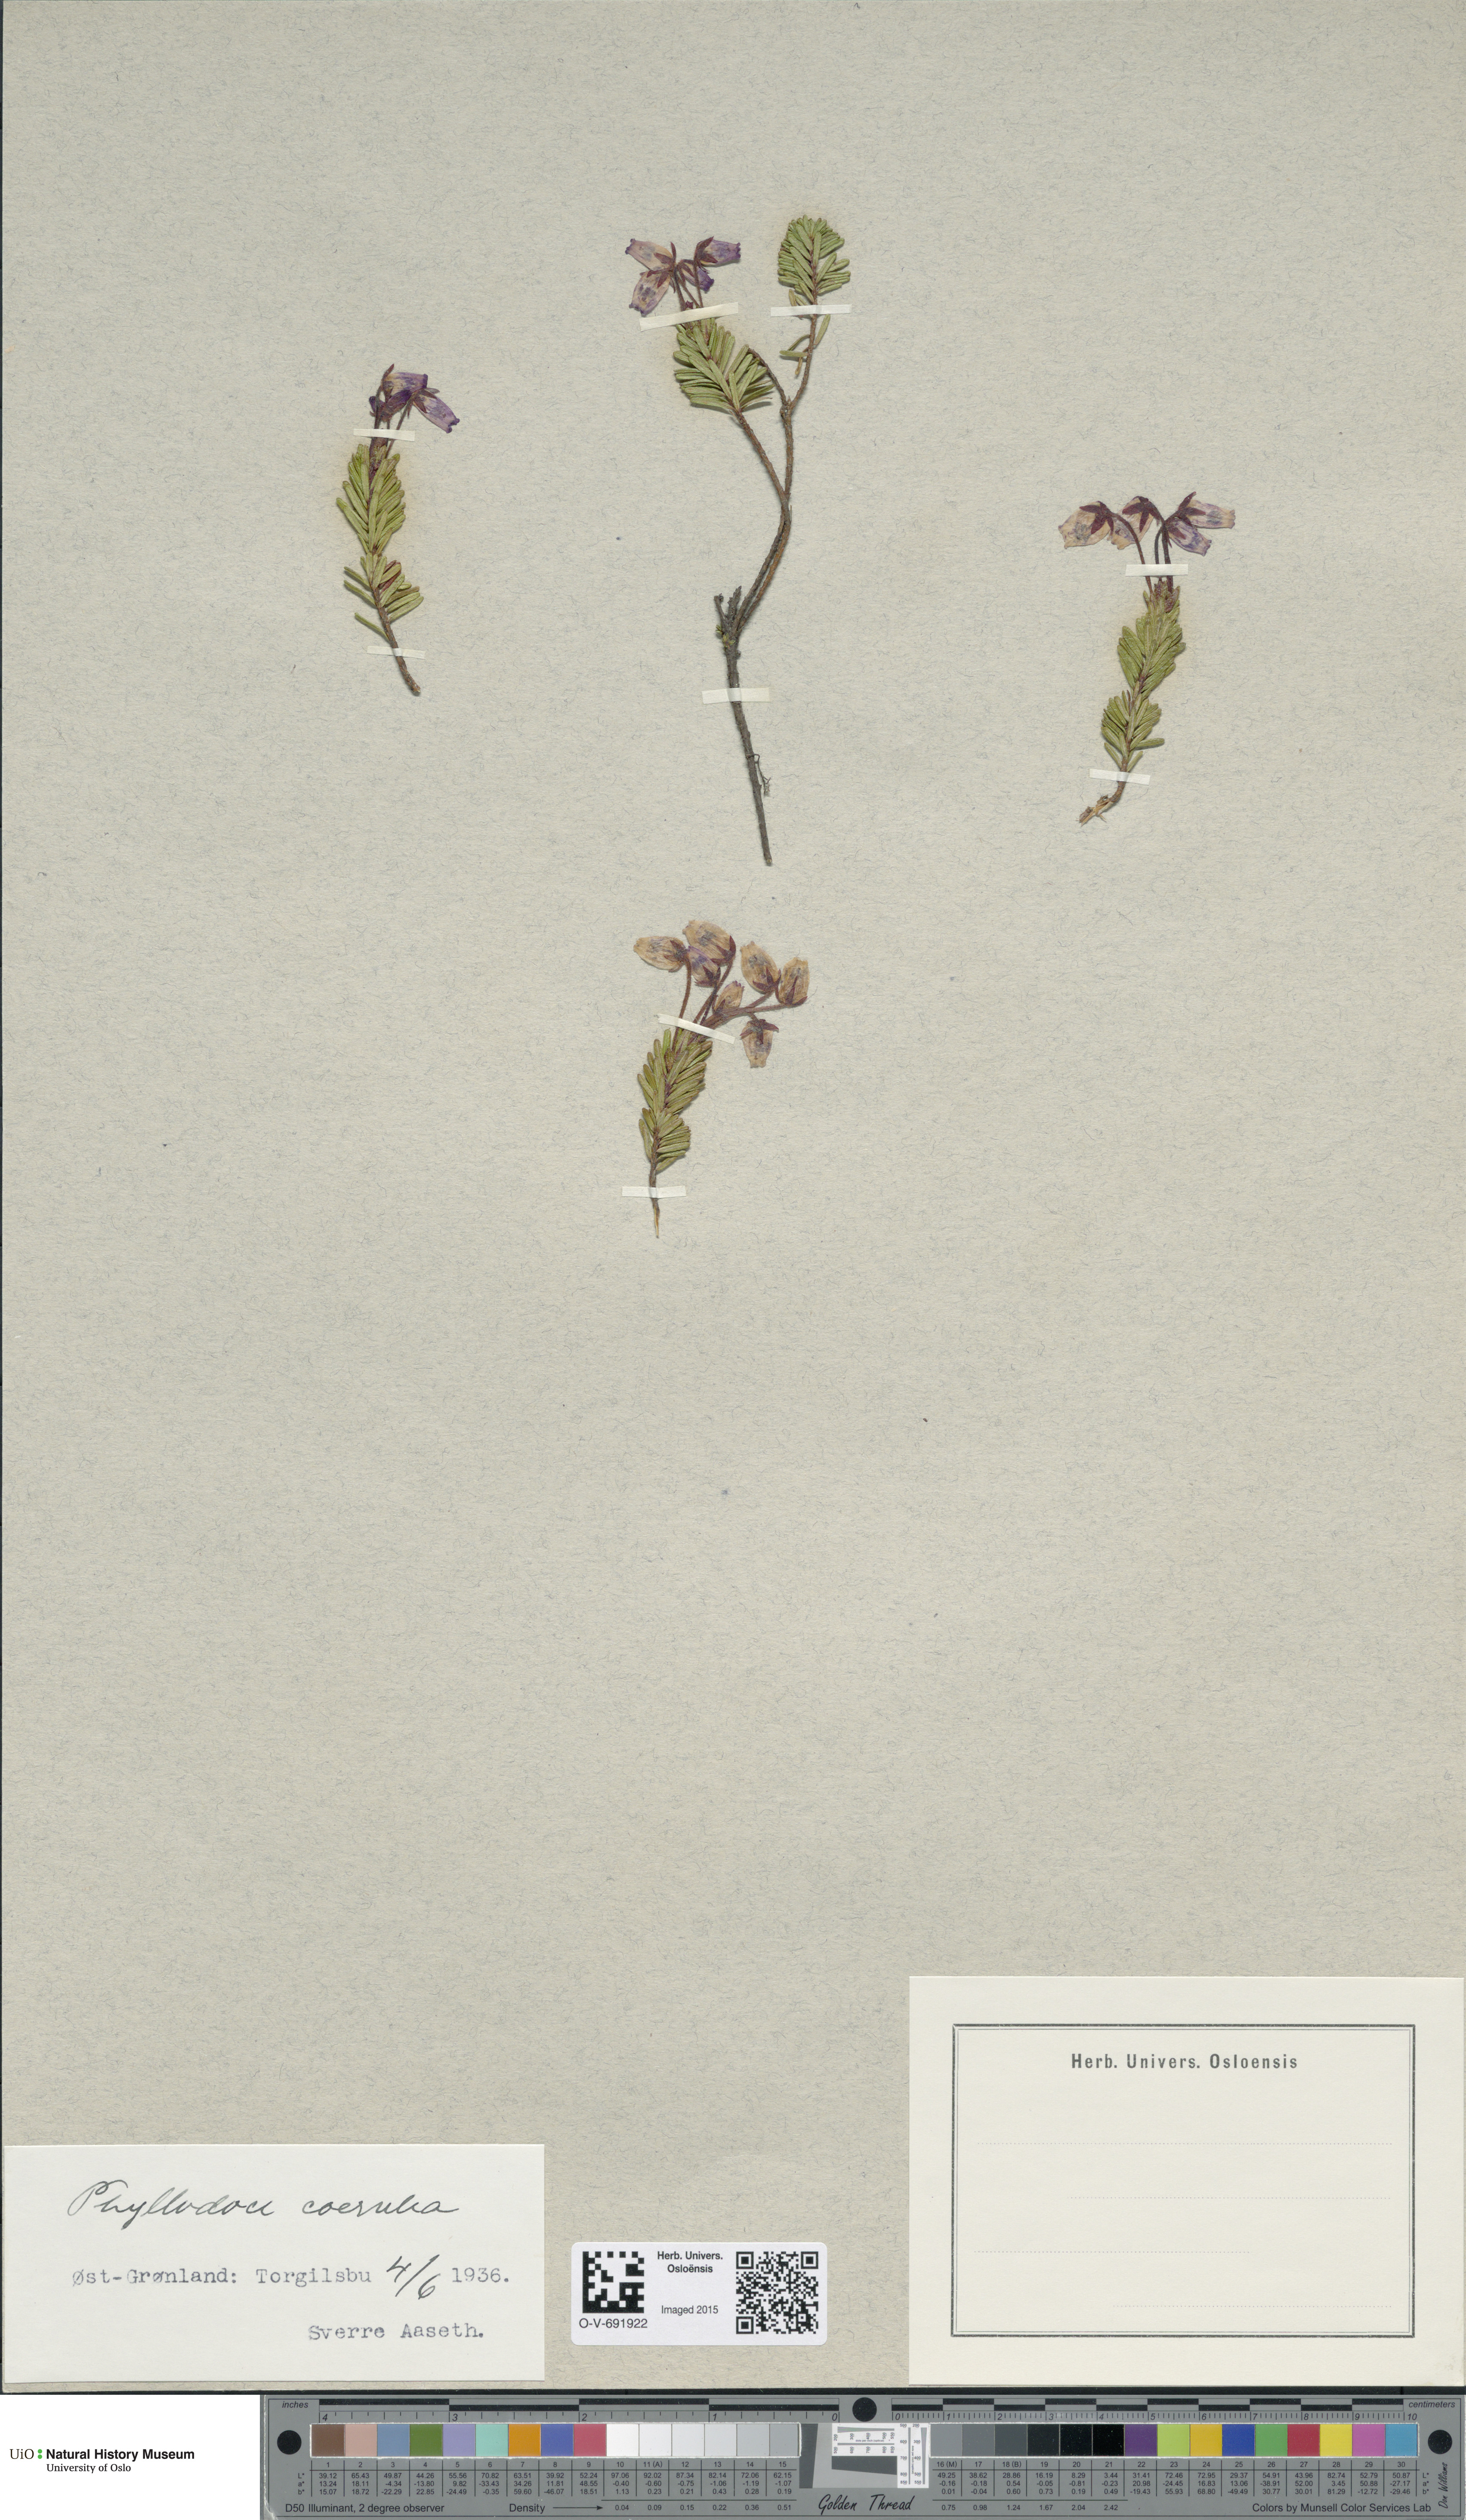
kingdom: Plantae
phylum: Tracheophyta
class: Magnoliopsida
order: Ericales
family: Ericaceae
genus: Phyllodoce
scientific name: Phyllodoce caerulea
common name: Blue heath
